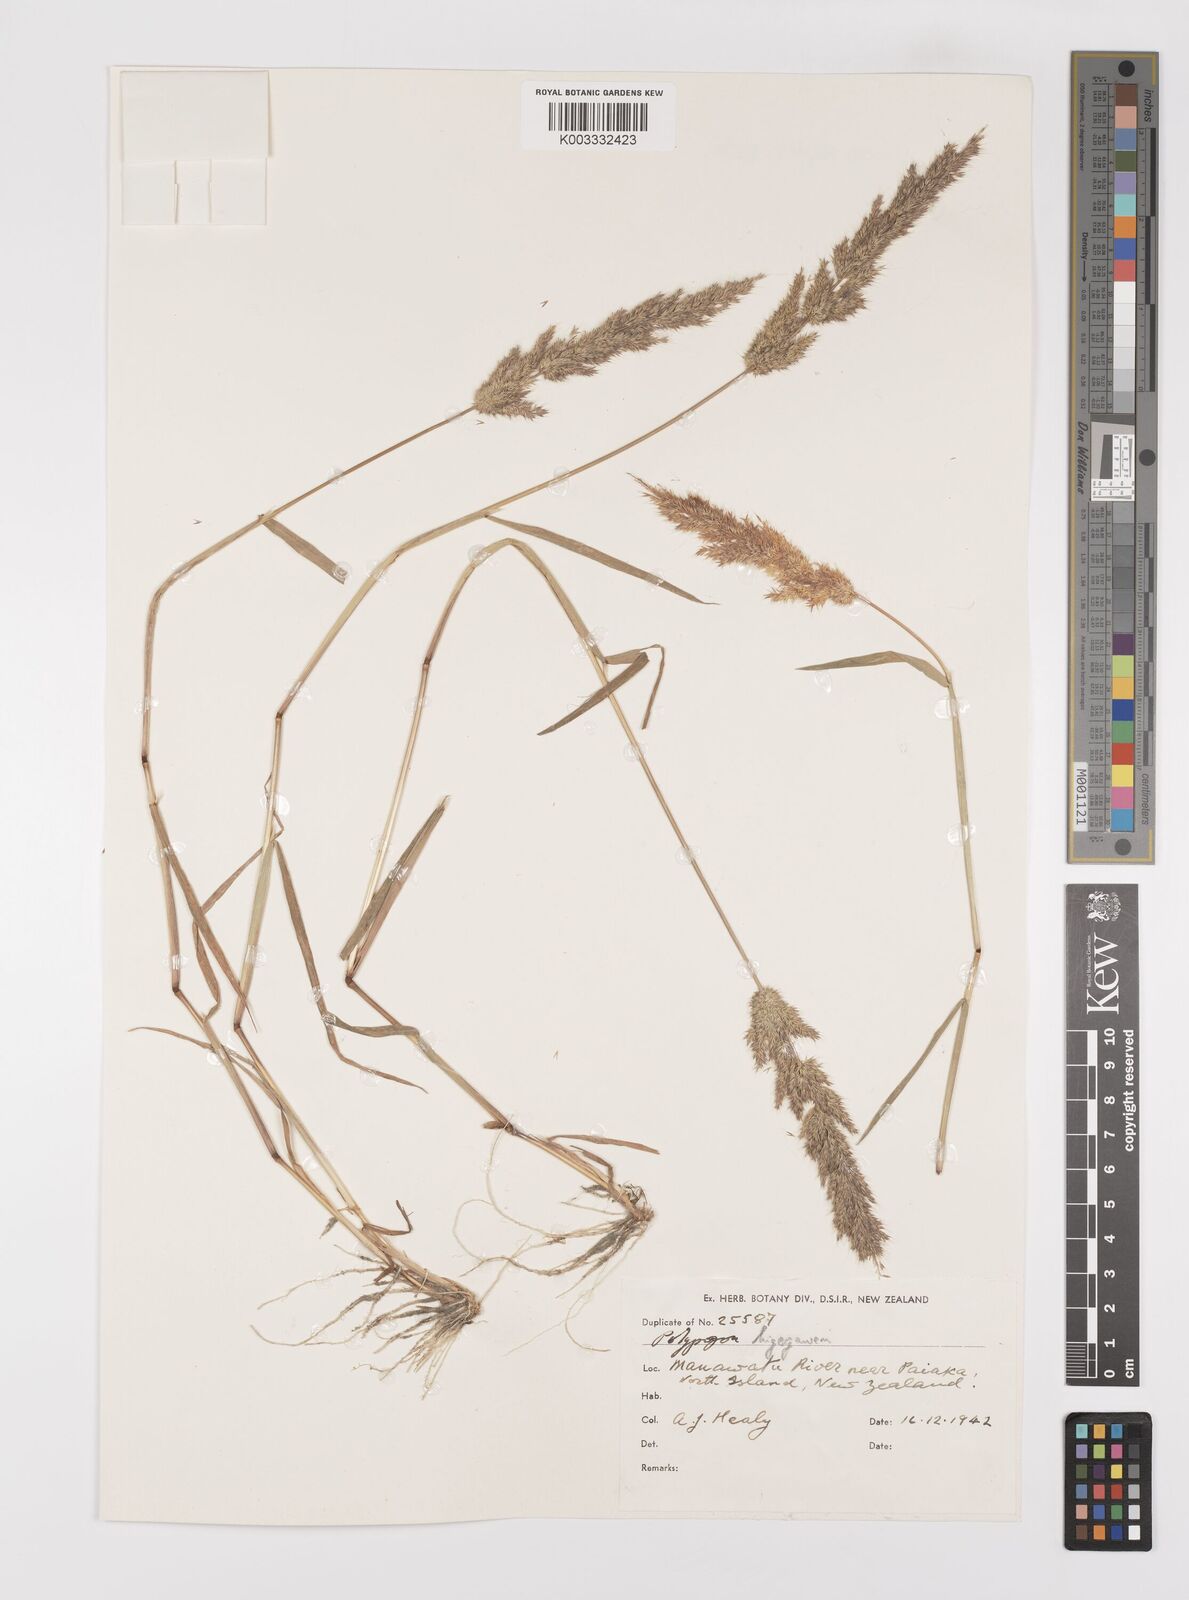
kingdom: Plantae
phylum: Tracheophyta
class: Liliopsida
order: Poales
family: Poaceae
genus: Polypogon
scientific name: Polypogon fugax
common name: Asia minor bluegrass
